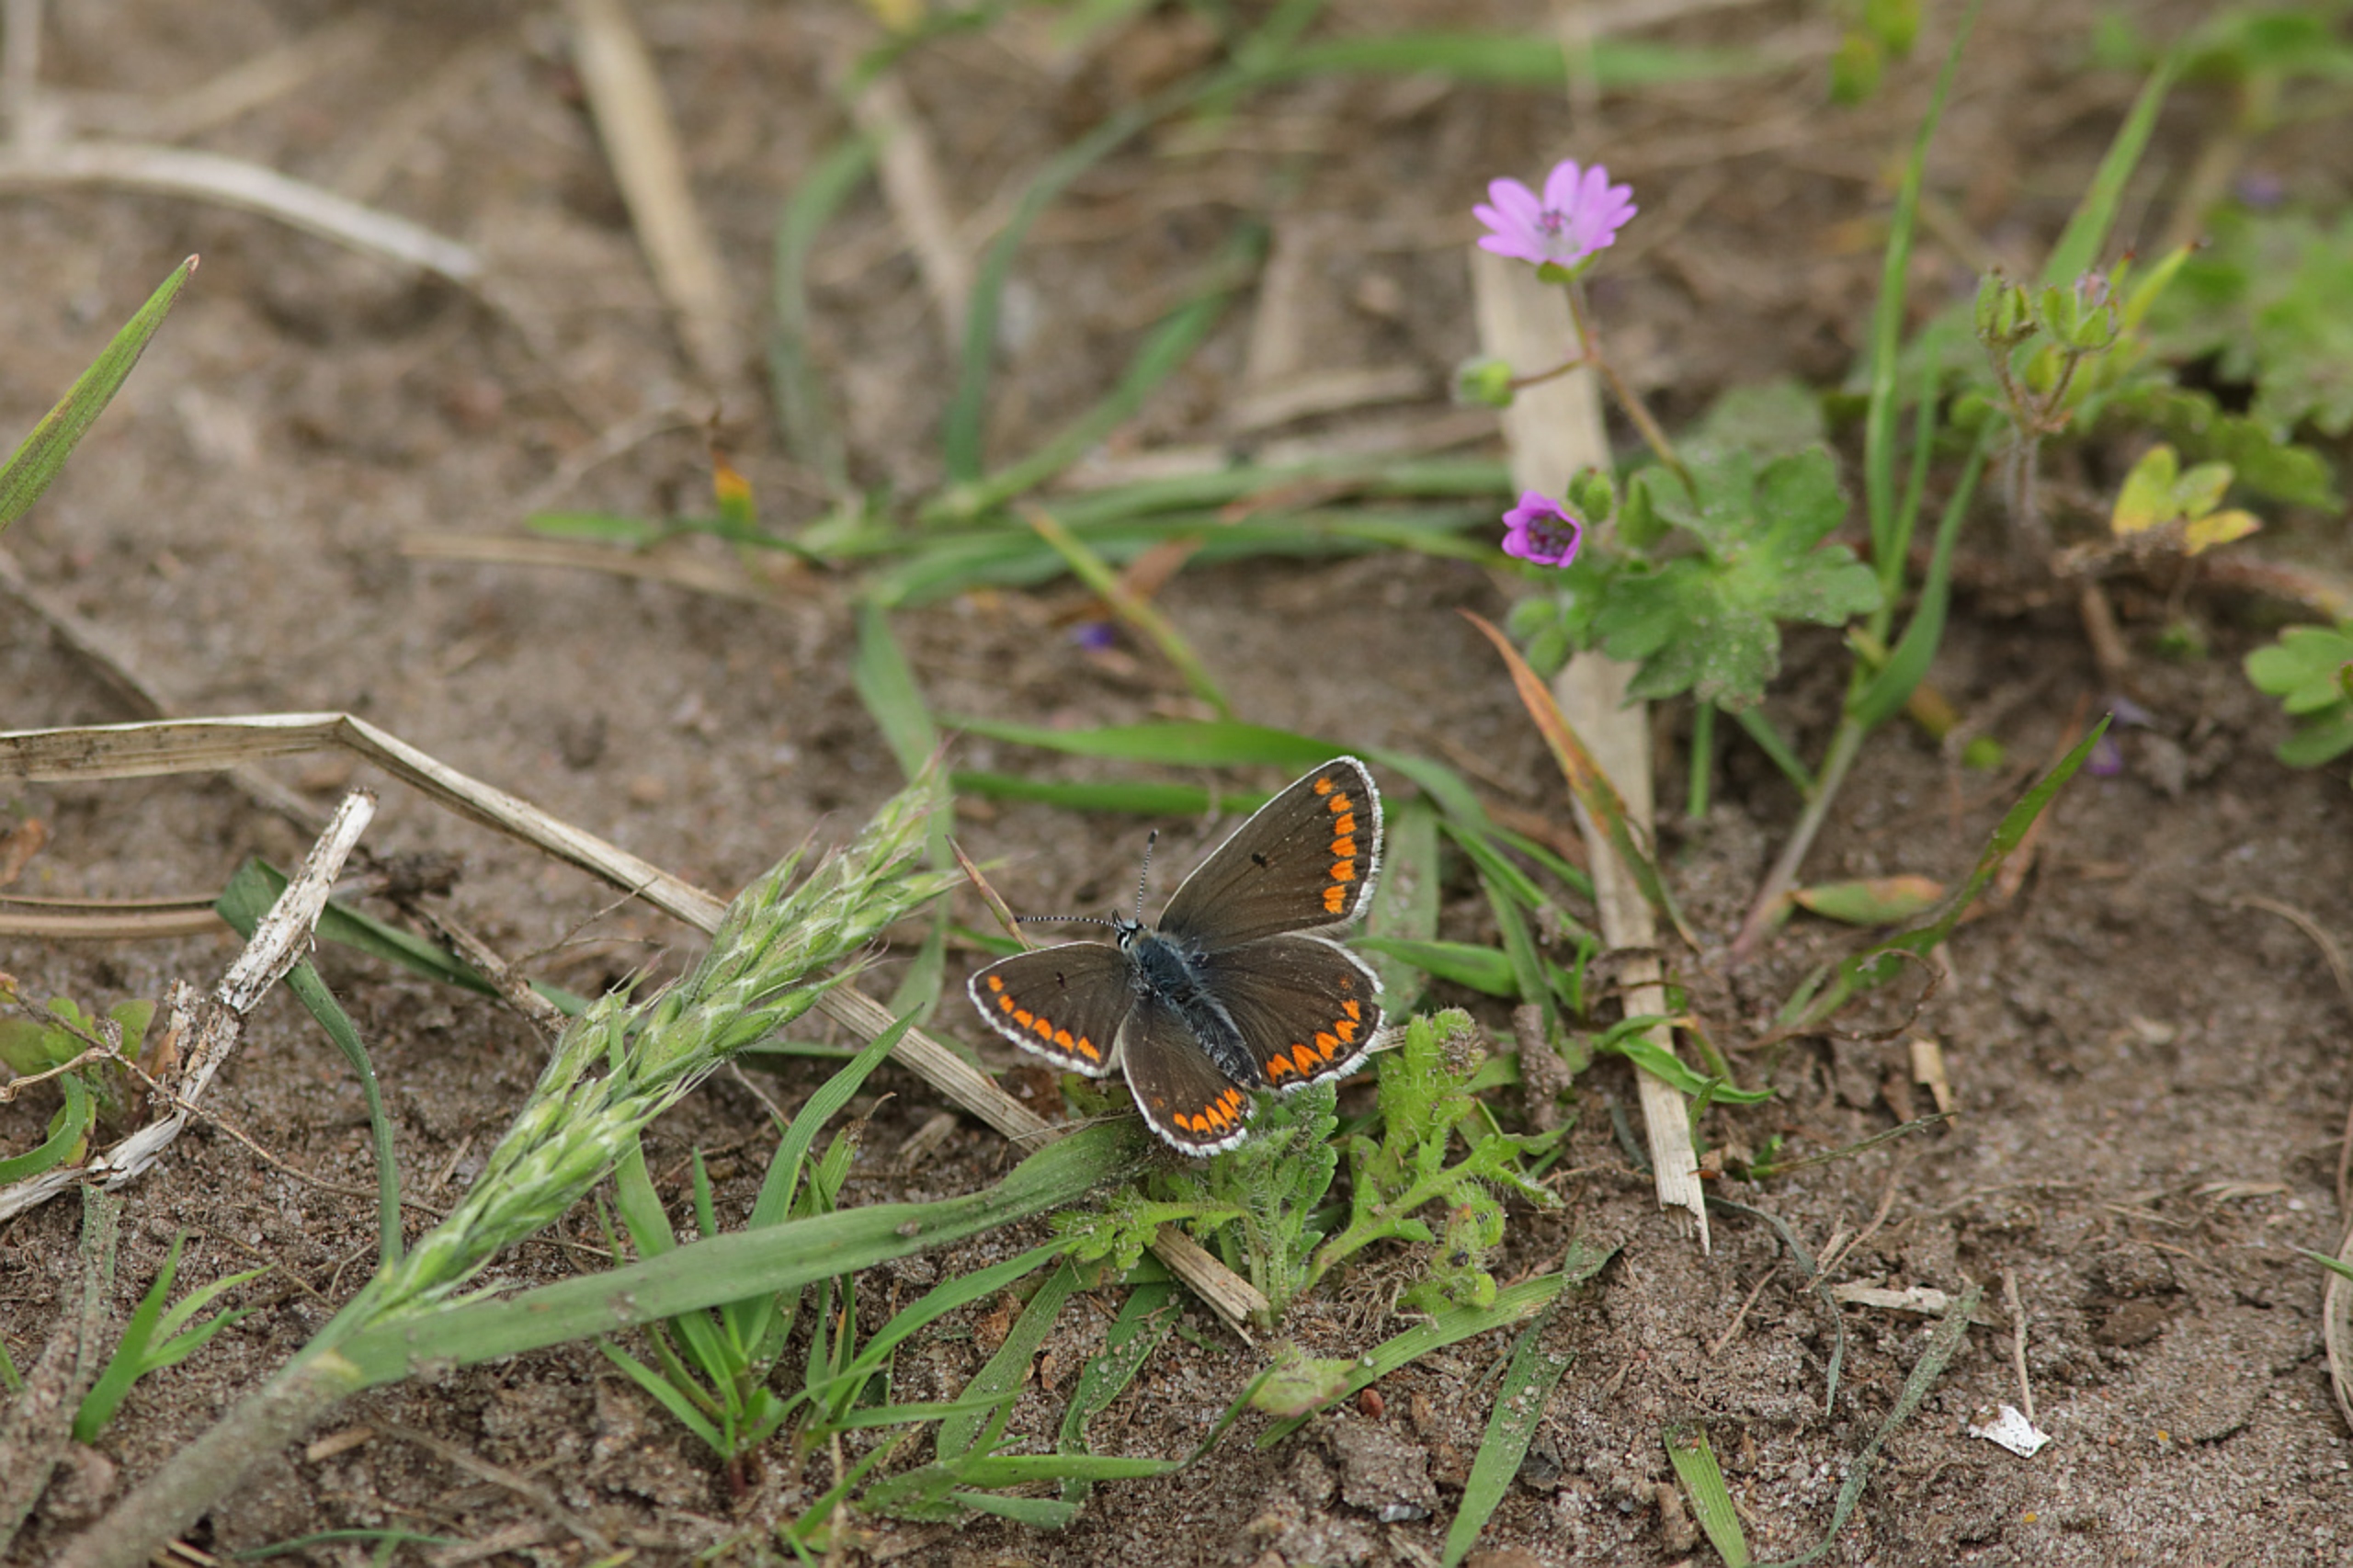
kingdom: Animalia
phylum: Arthropoda
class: Insecta
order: Lepidoptera
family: Lycaenidae
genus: Aricia
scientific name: Aricia agestis
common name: Rødplettet blåfugl
